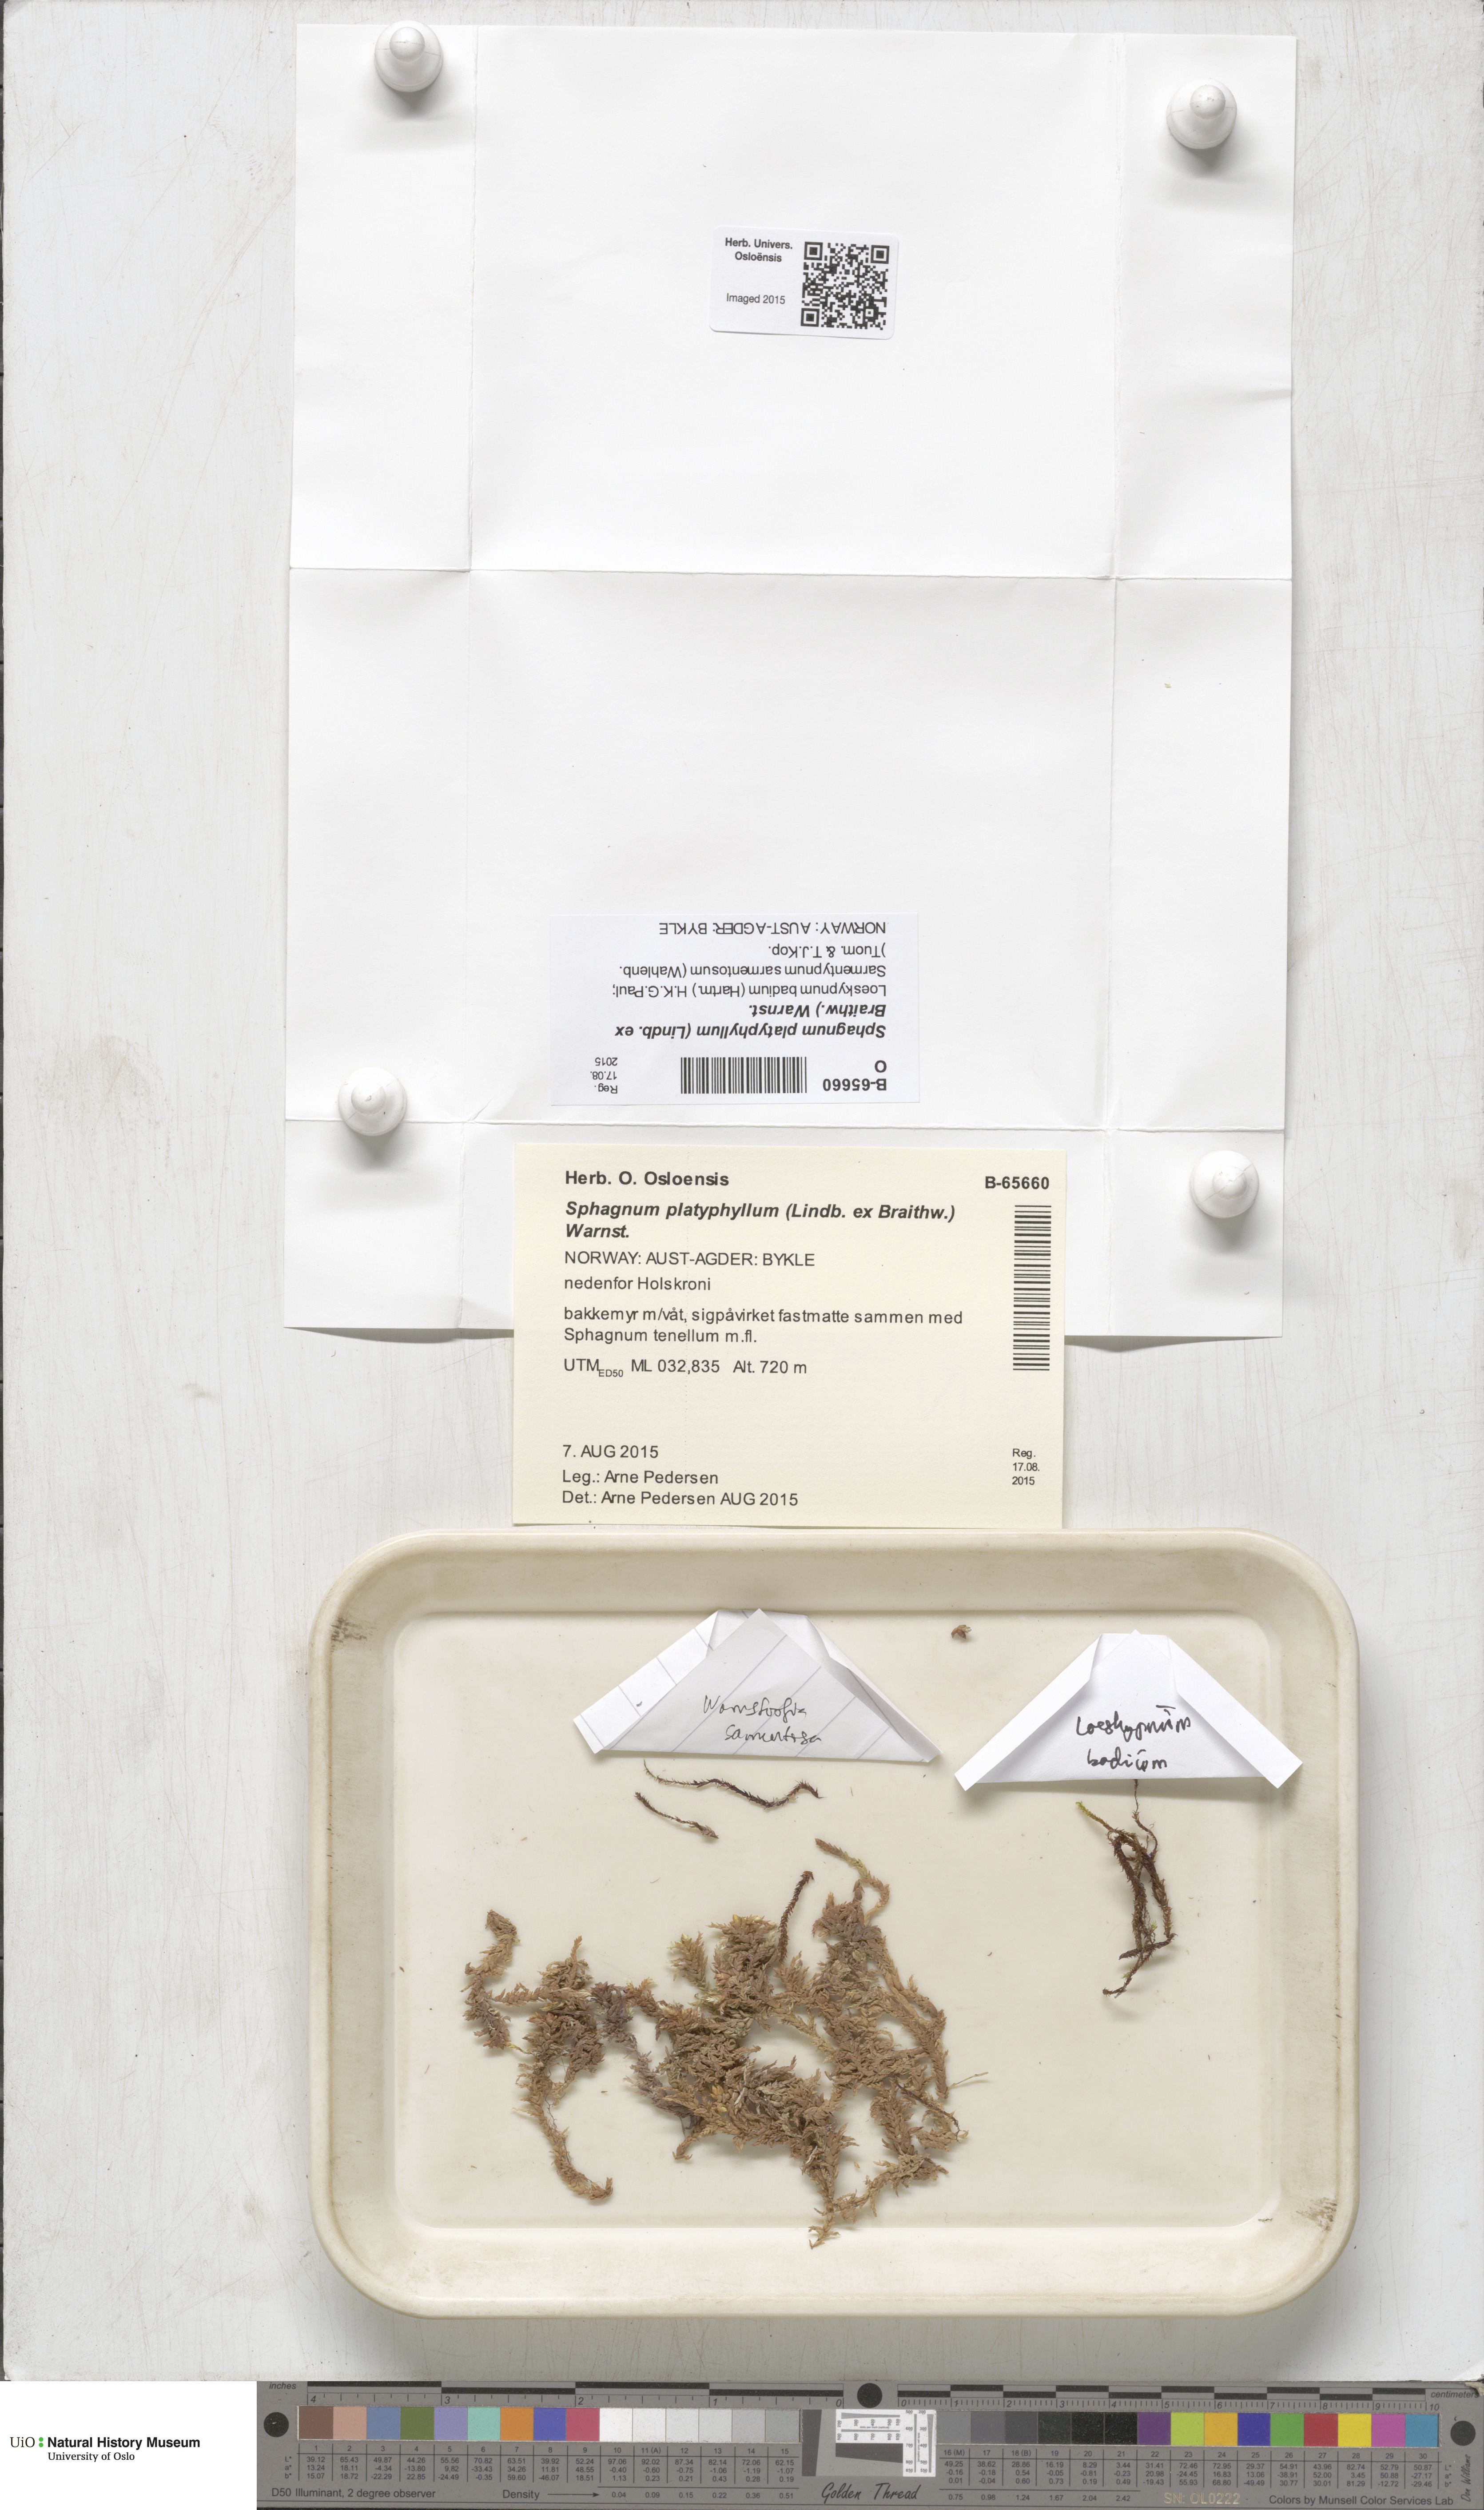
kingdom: Plantae
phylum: Bryophyta
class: Sphagnopsida
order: Sphagnales
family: Sphagnaceae
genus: Sphagnum
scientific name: Sphagnum platyphyllum
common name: Flat-leaved peat moss
